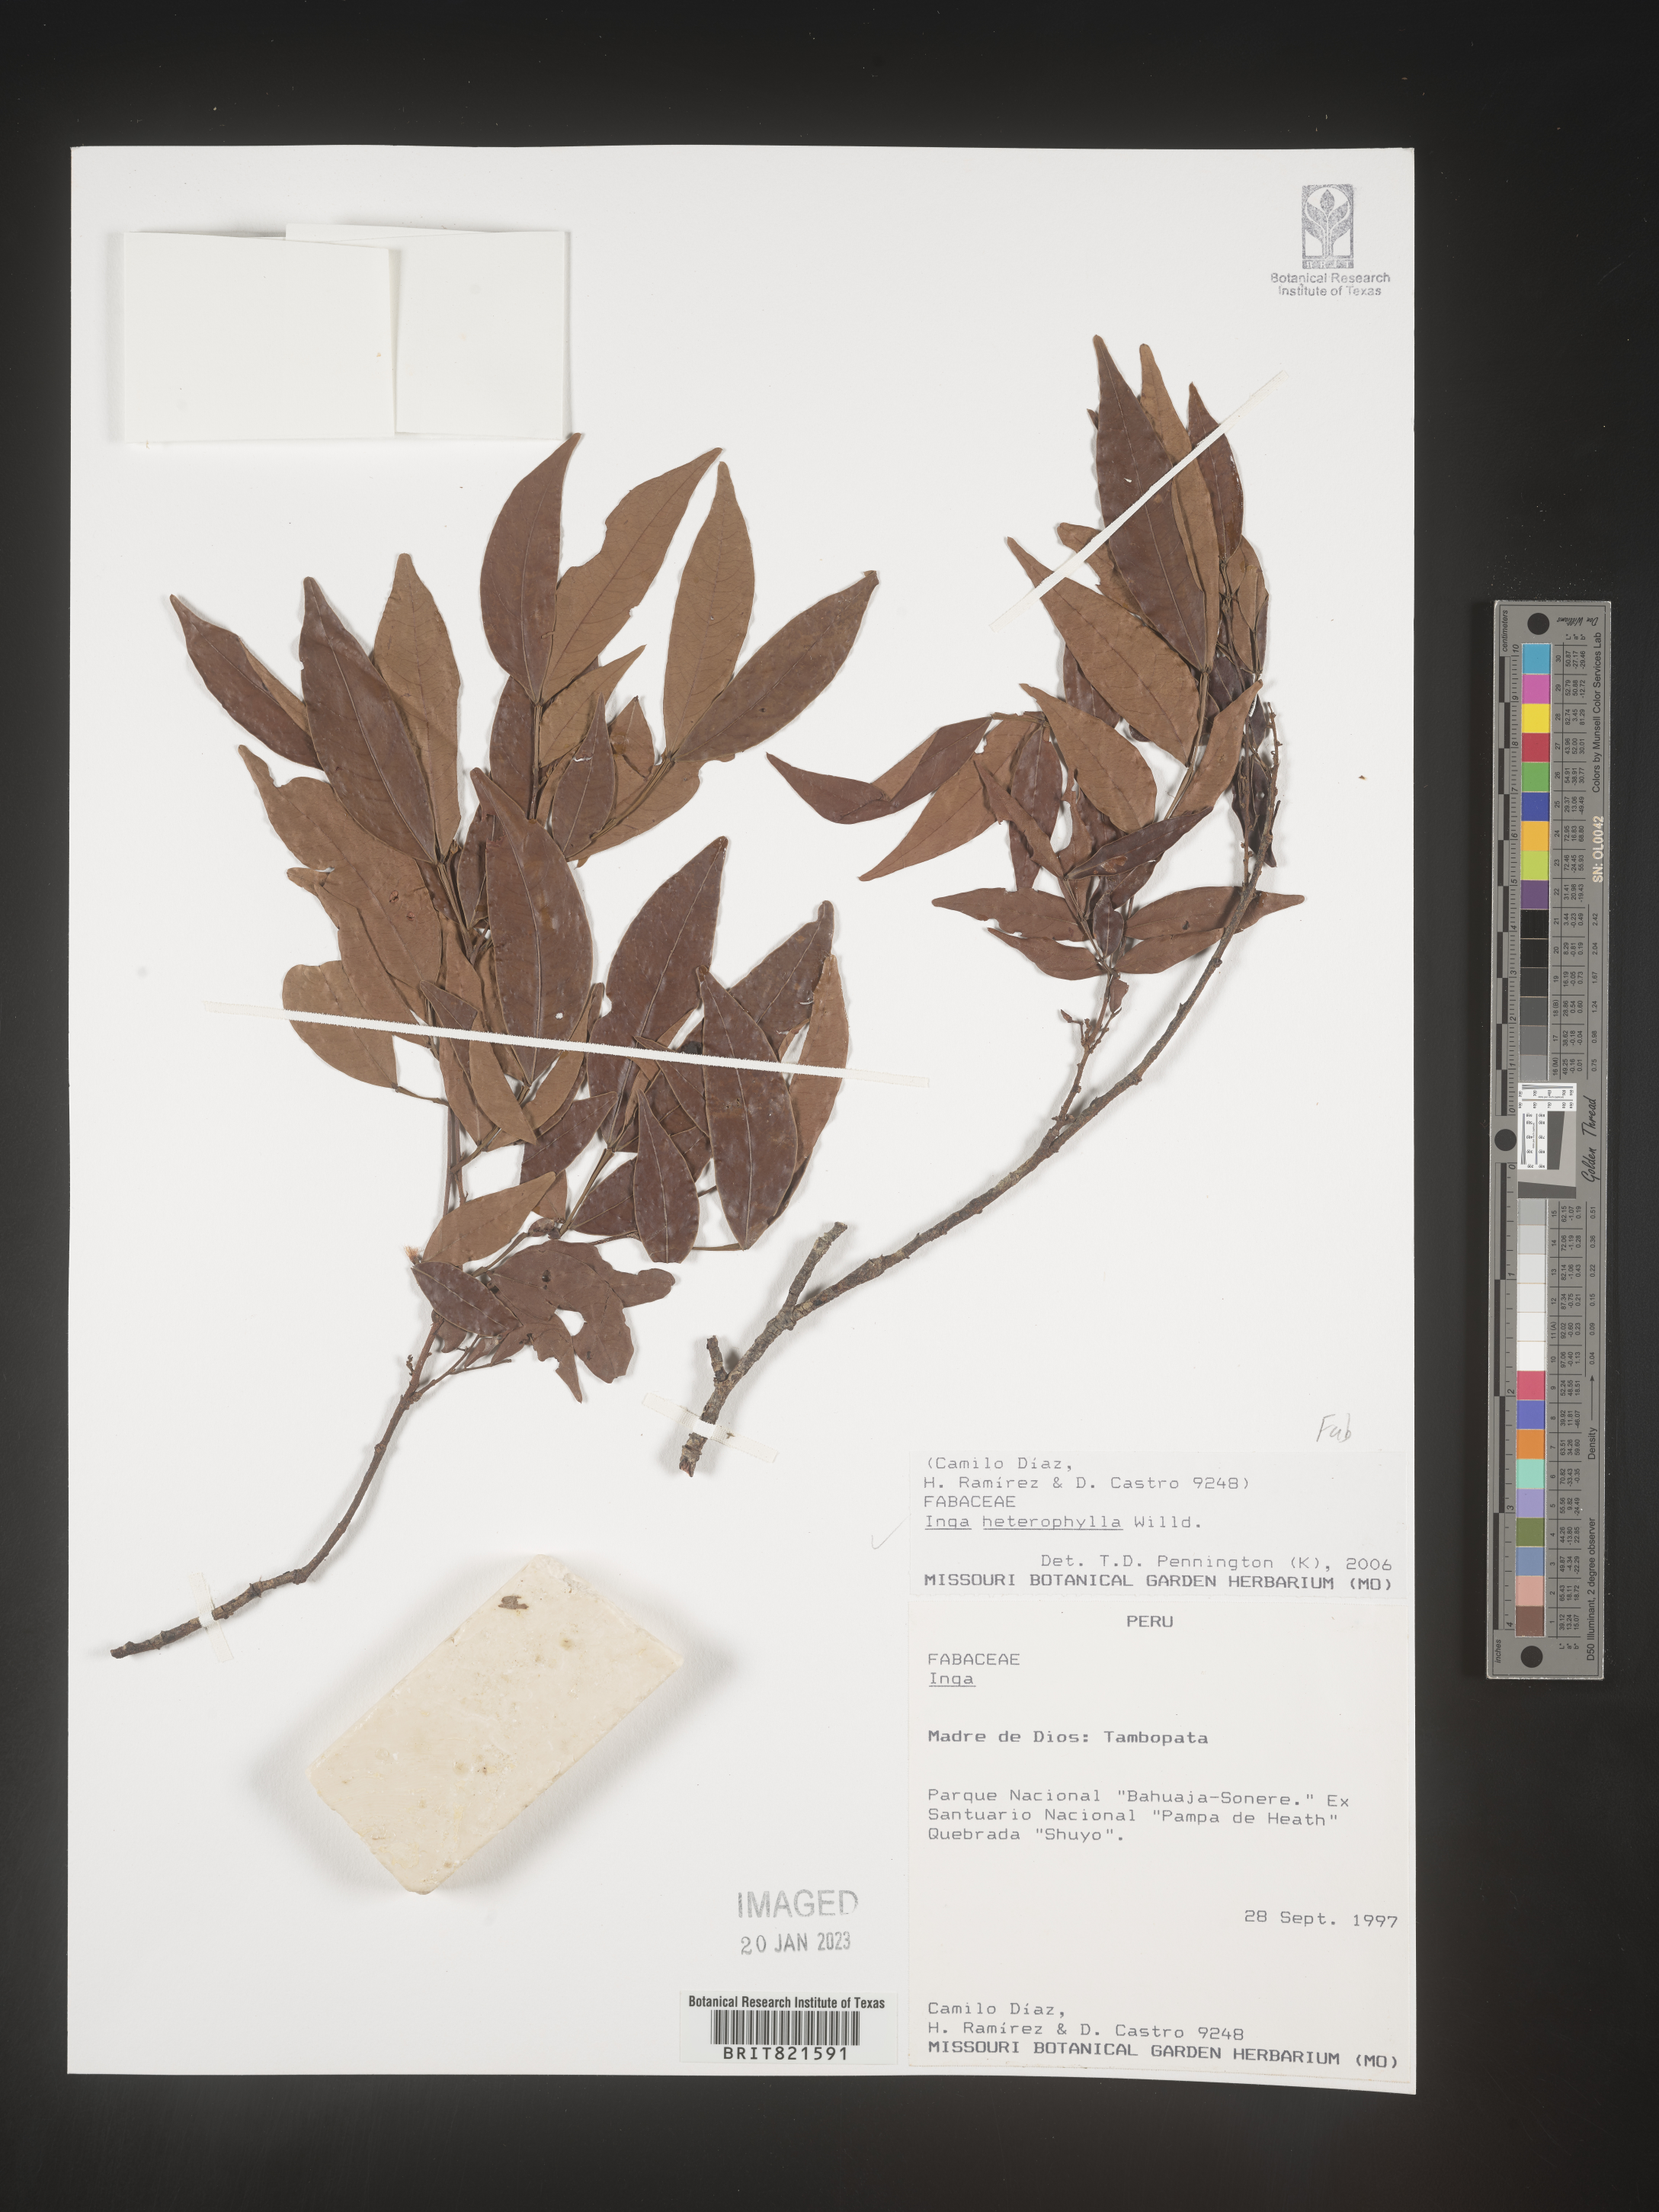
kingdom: Plantae
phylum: Tracheophyta
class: Magnoliopsida
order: Fabales
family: Fabaceae
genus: Inga
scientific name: Inga
